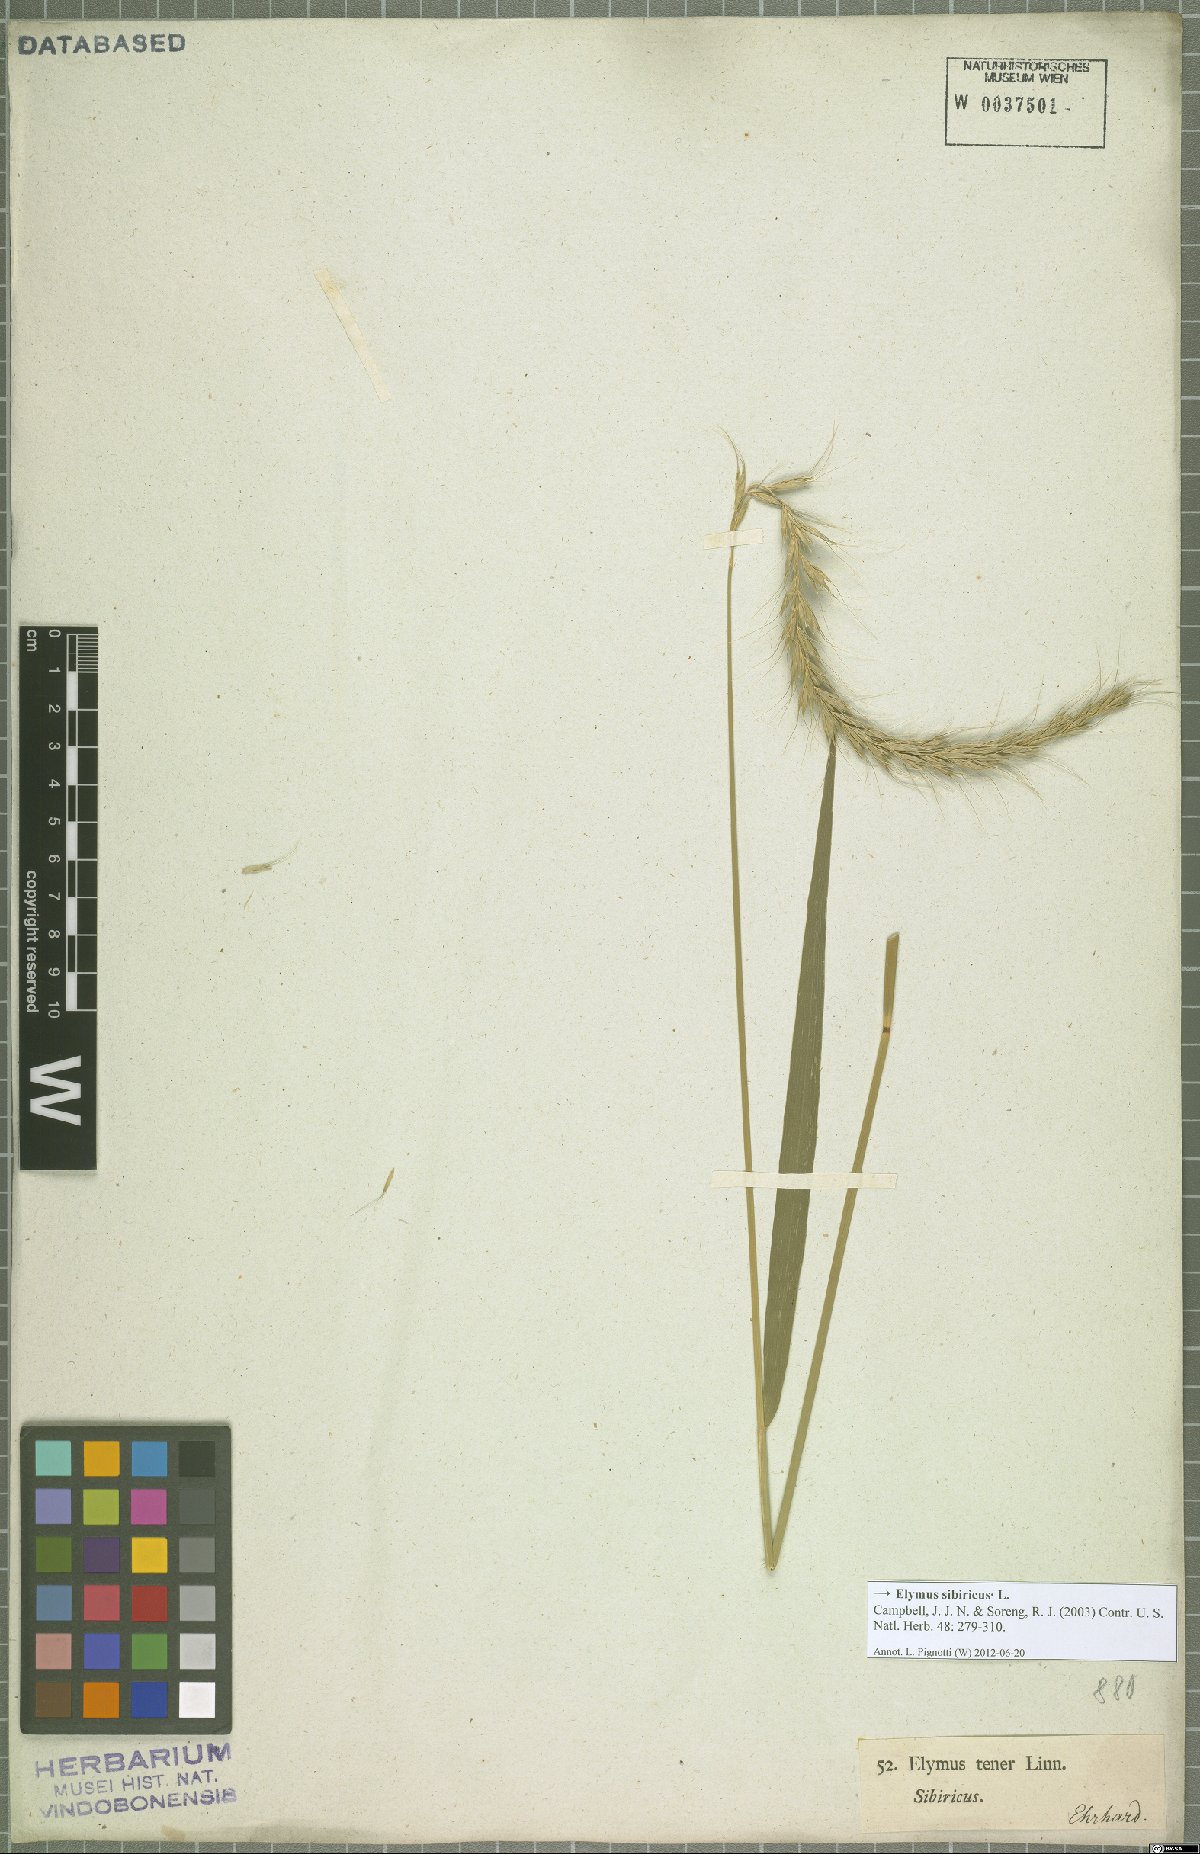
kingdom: Plantae
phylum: Tracheophyta
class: Liliopsida
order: Poales
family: Poaceae
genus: Elymus
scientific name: Elymus sibiricus
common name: Siberian wildrye
